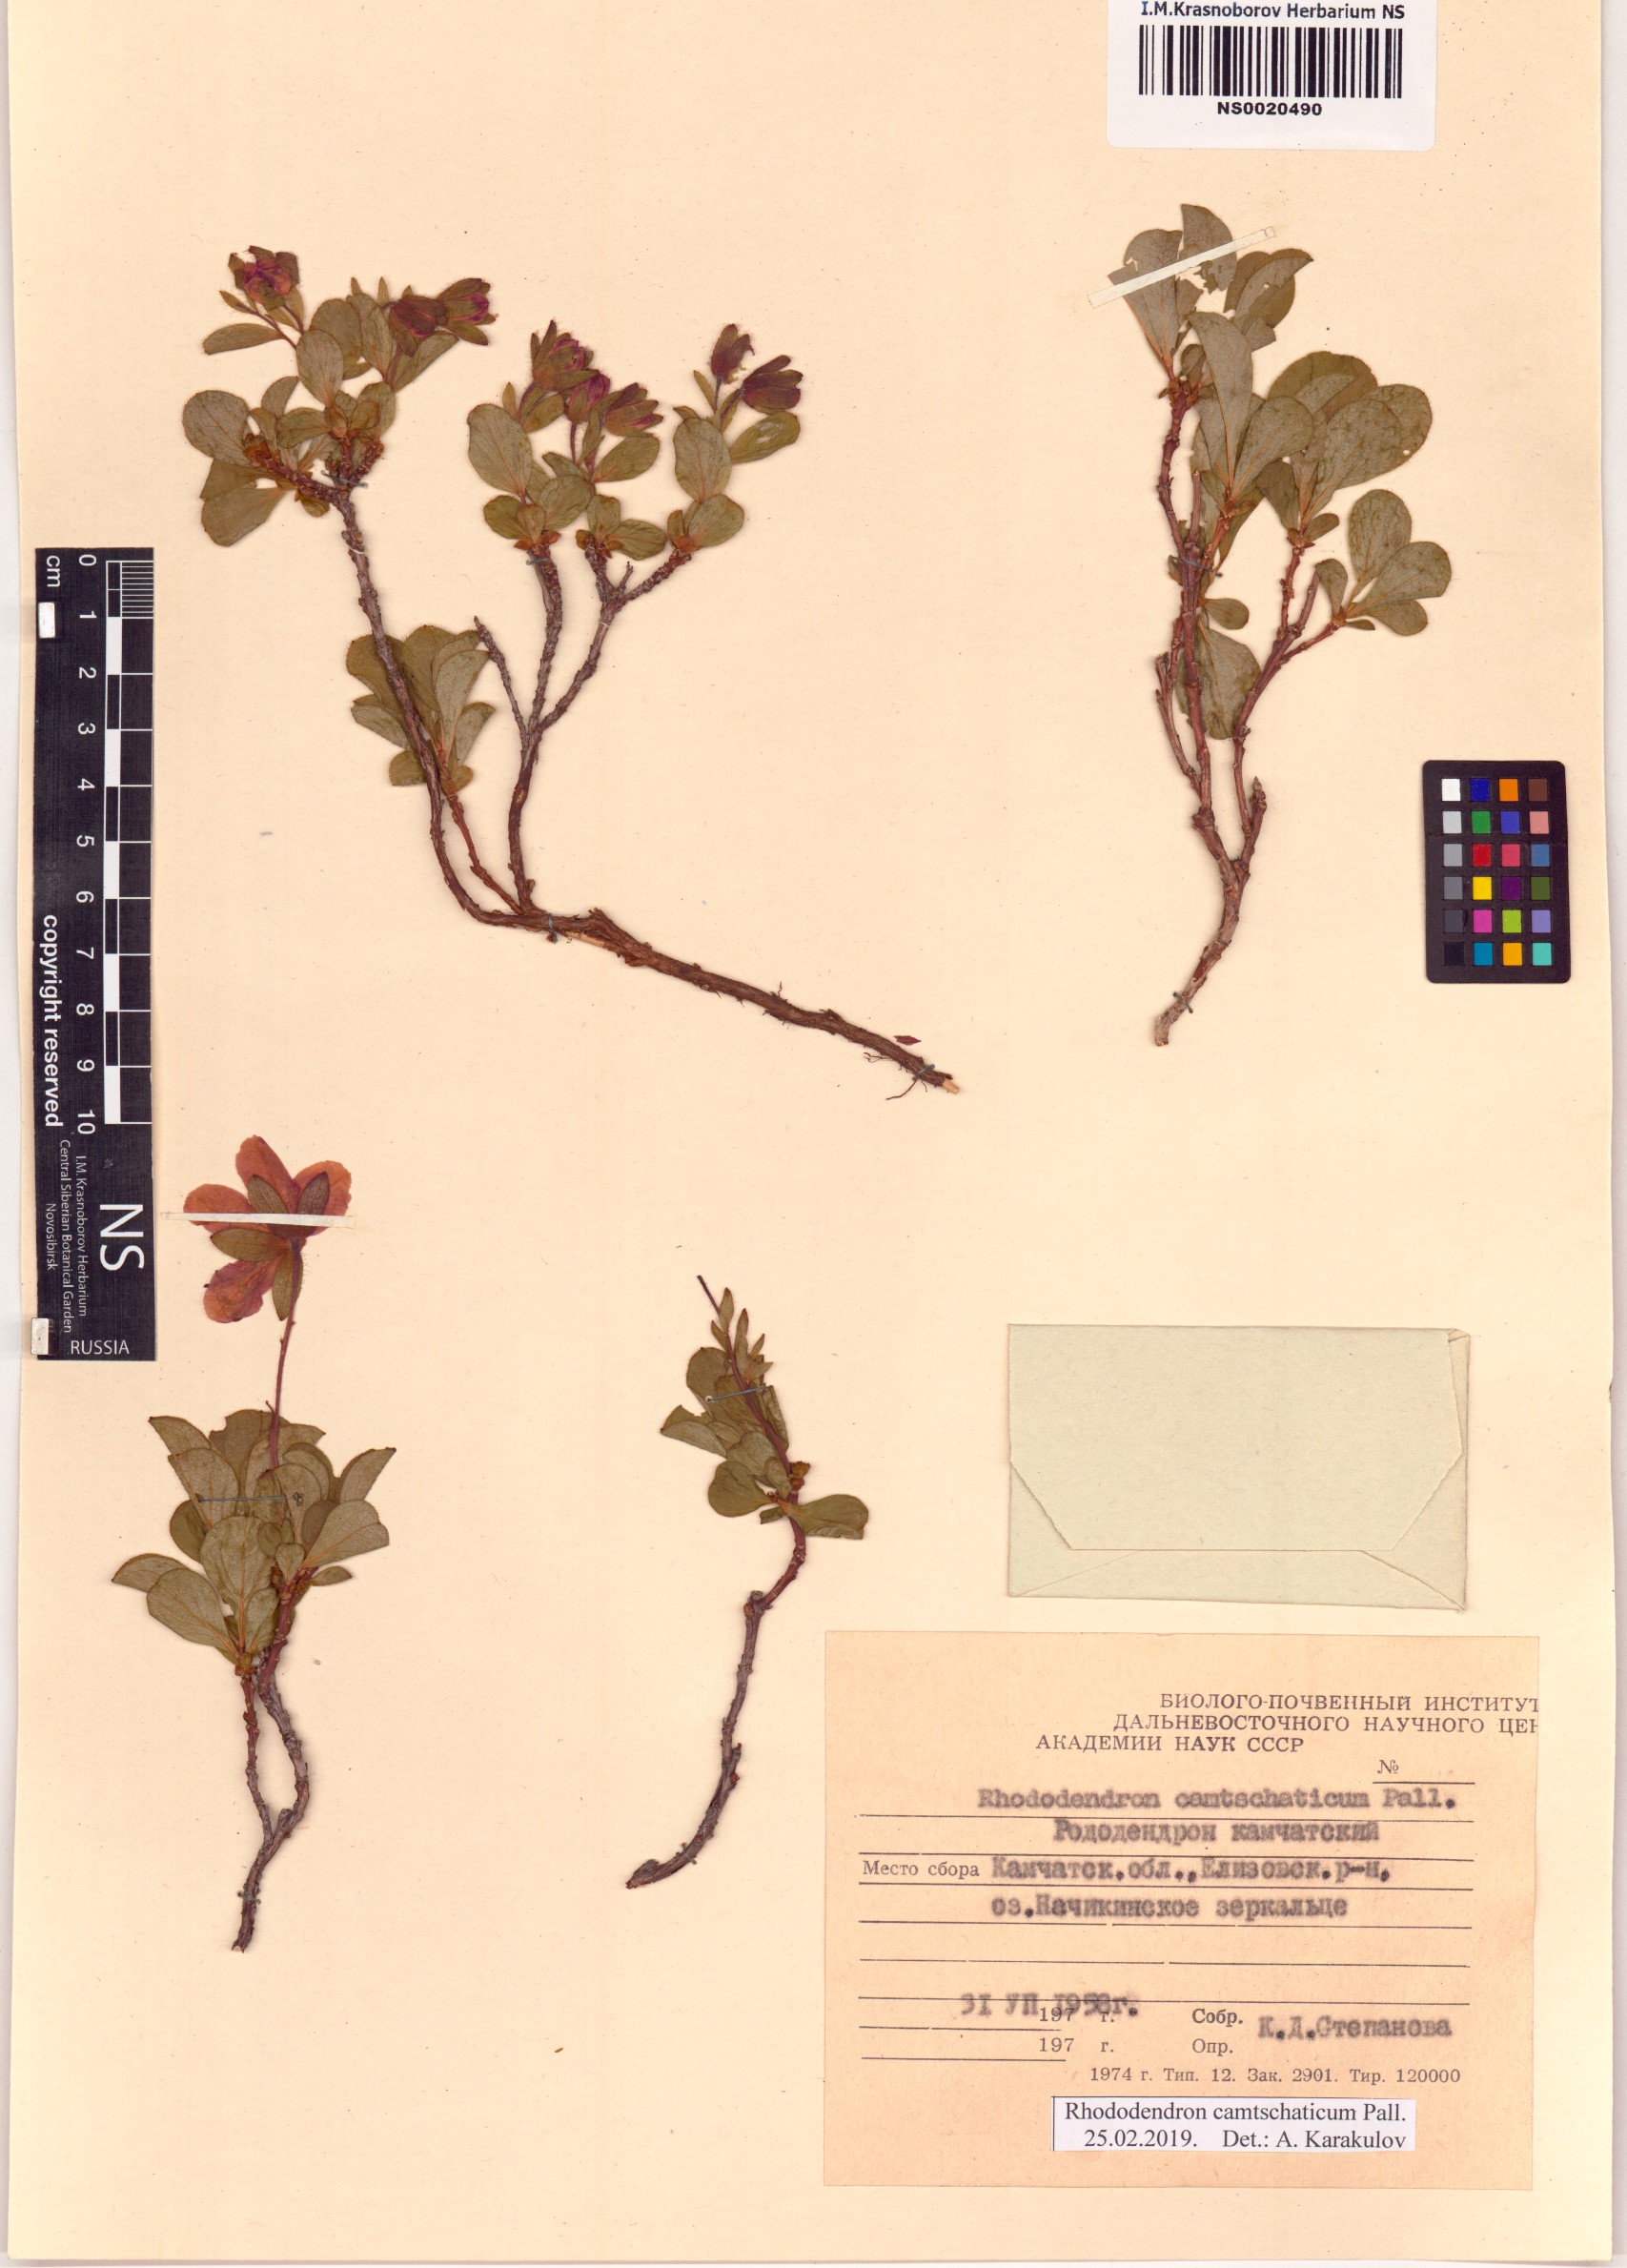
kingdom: Plantae
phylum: Tracheophyta
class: Magnoliopsida
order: Ericales
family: Ericaceae
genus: Rhododendron
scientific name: Rhododendron camtschaticum
